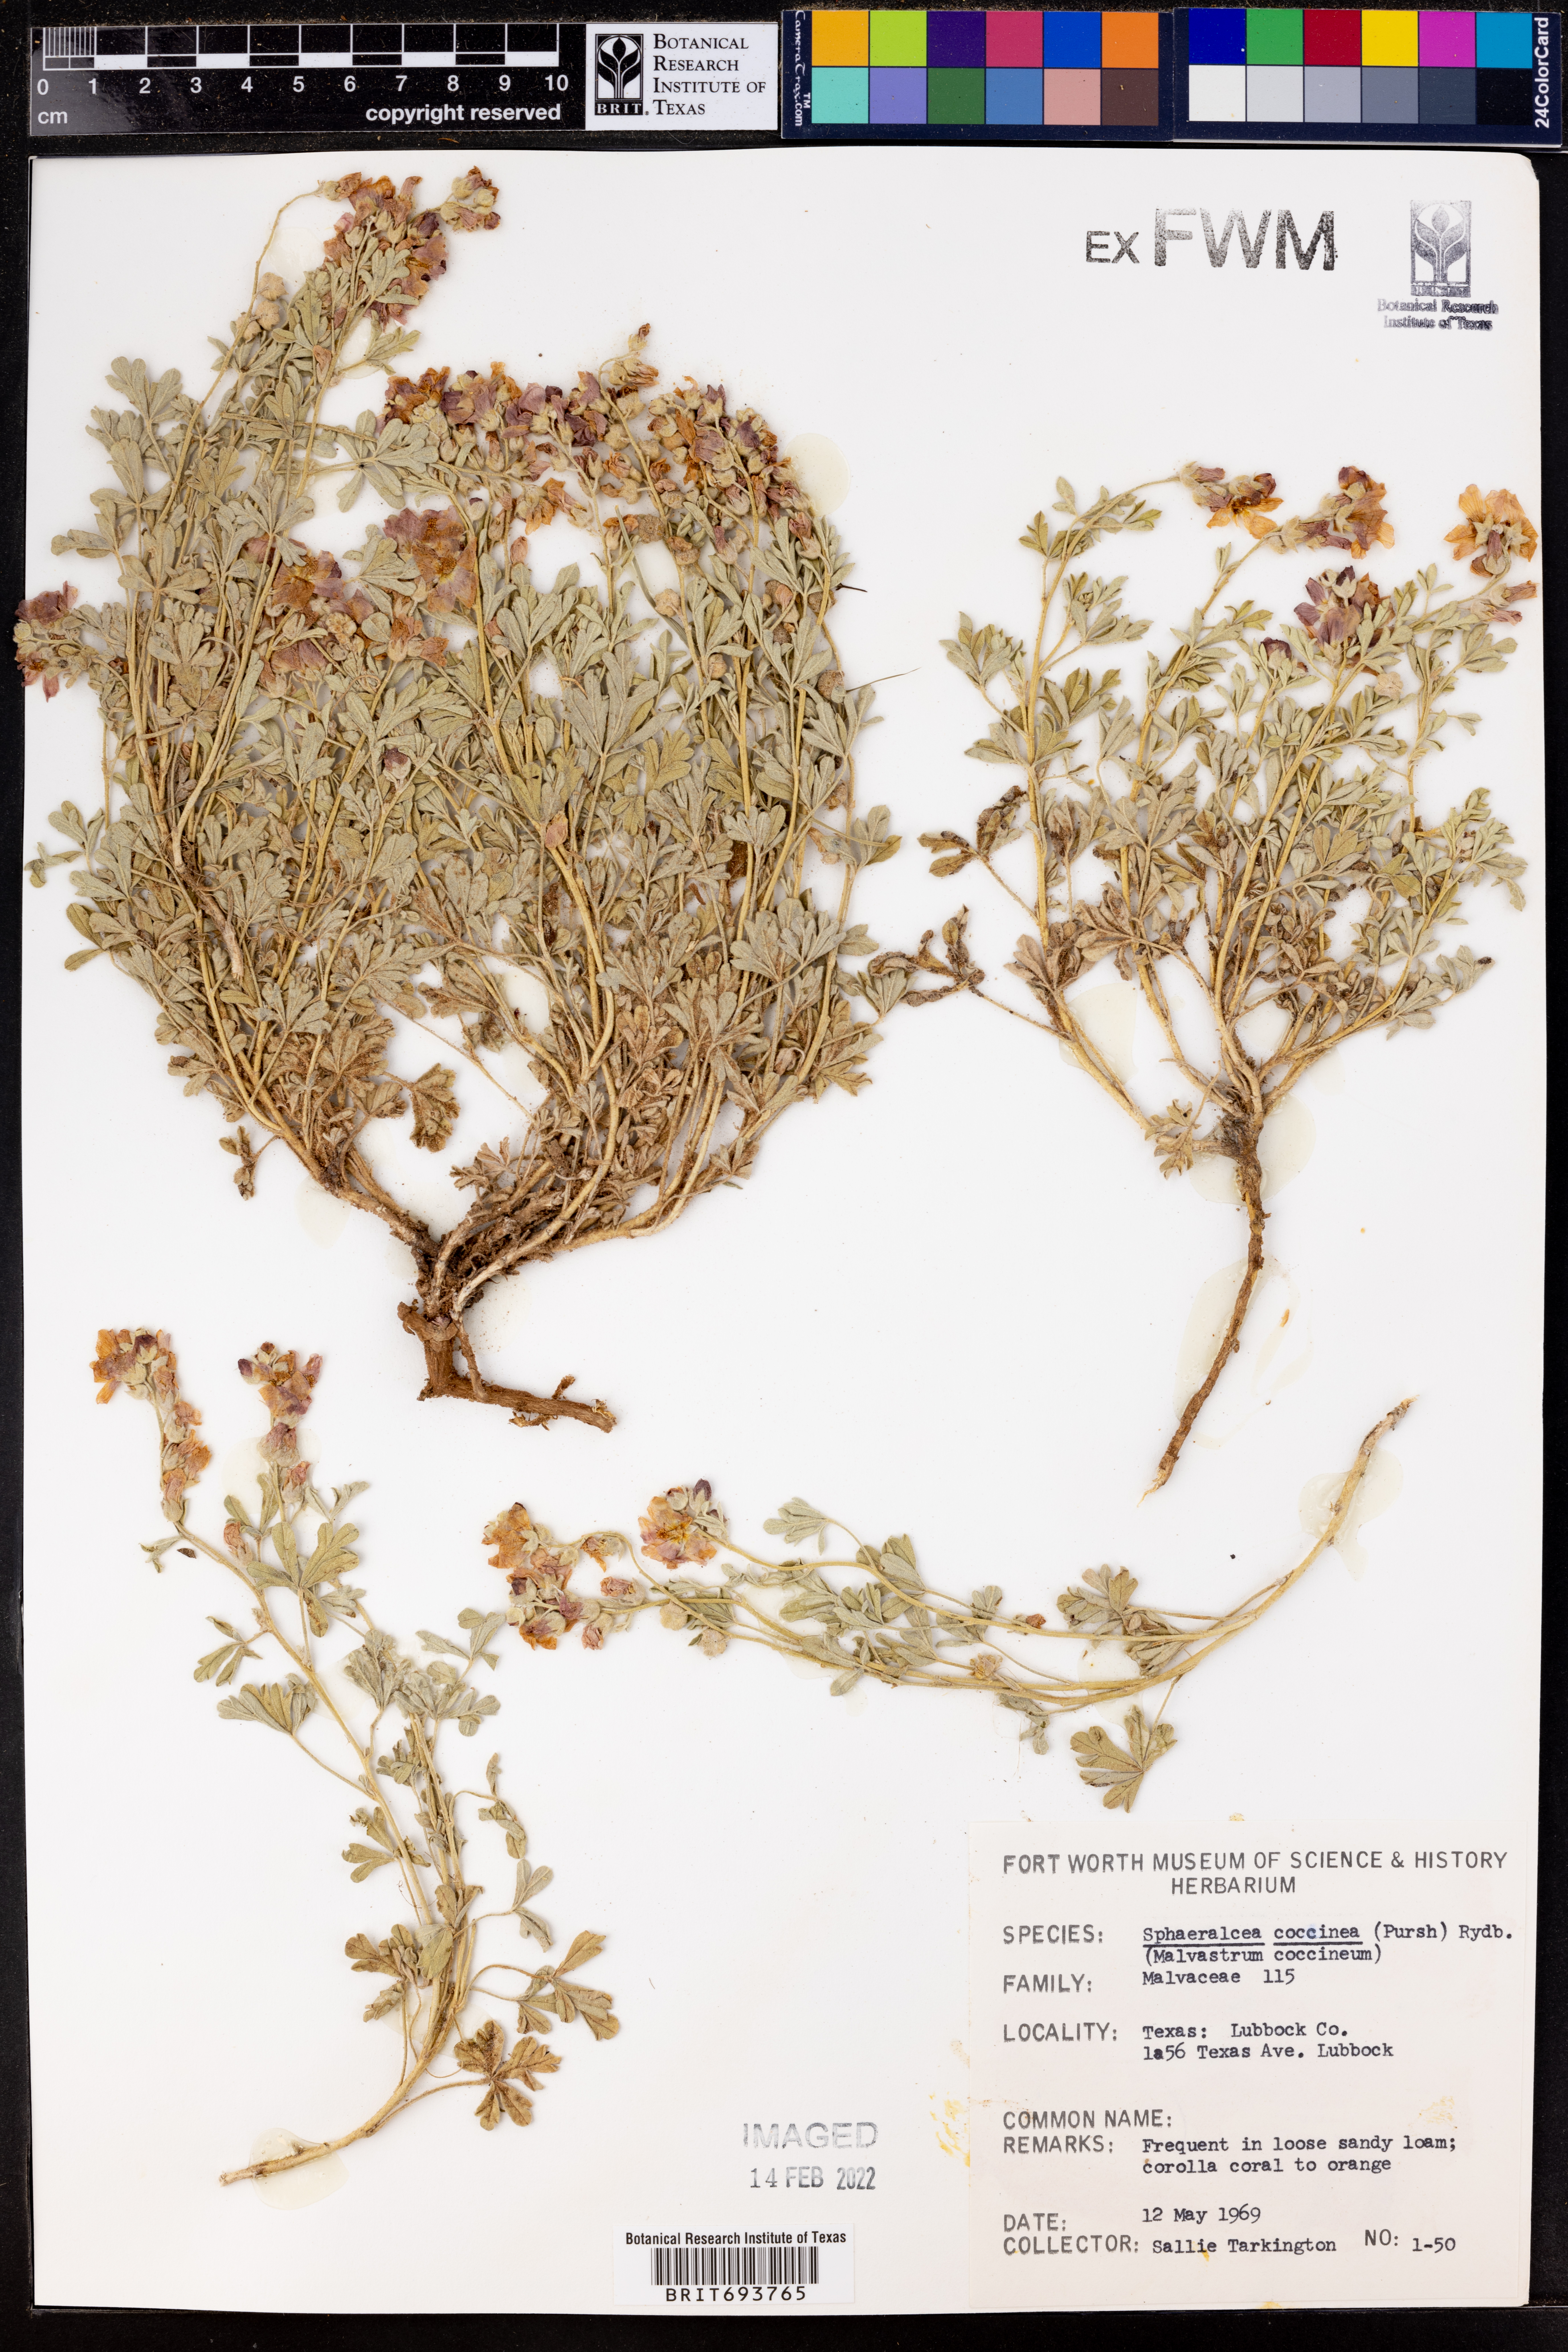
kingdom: Plantae
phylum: Tracheophyta
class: Magnoliopsida
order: Malvales
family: Malvaceae
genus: Sphaeralcea
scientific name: Sphaeralcea coccinea
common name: Moss-rose
